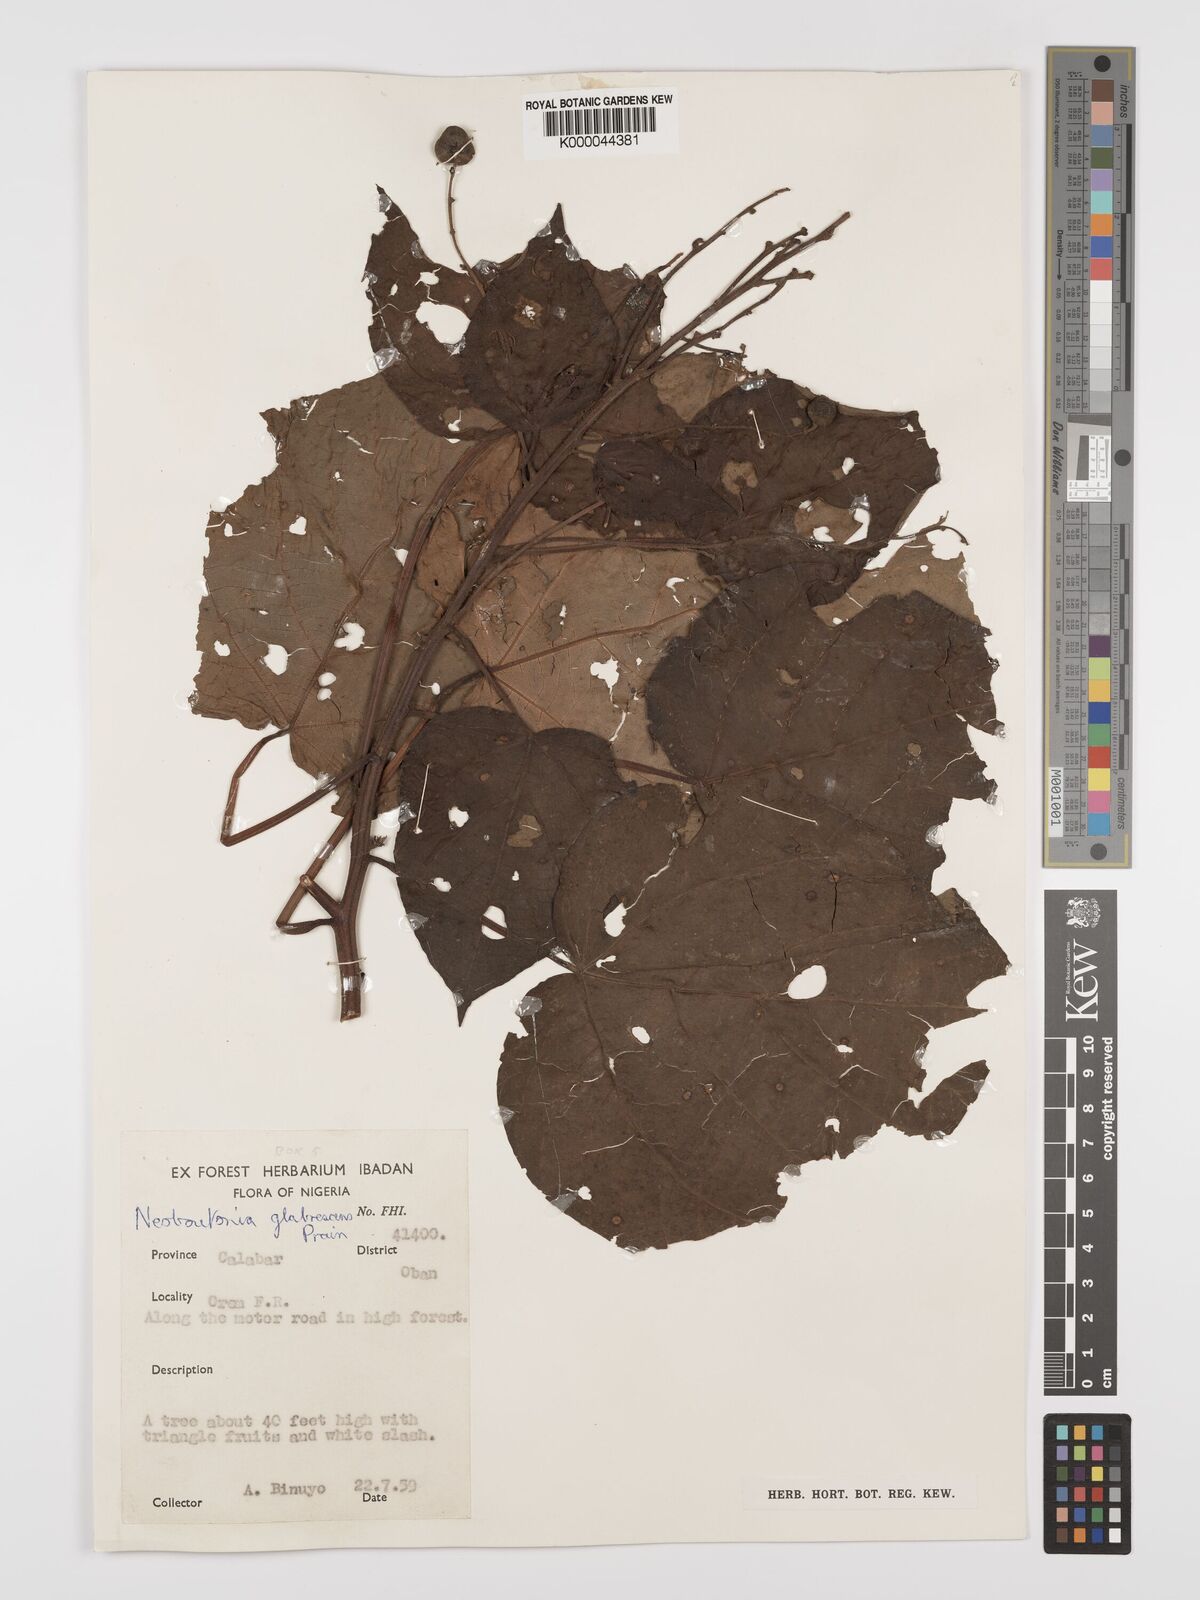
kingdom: Plantae
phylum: Tracheophyta
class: Magnoliopsida
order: Malpighiales
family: Euphorbiaceae
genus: Neoboutonia
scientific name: Neoboutonia mannii
